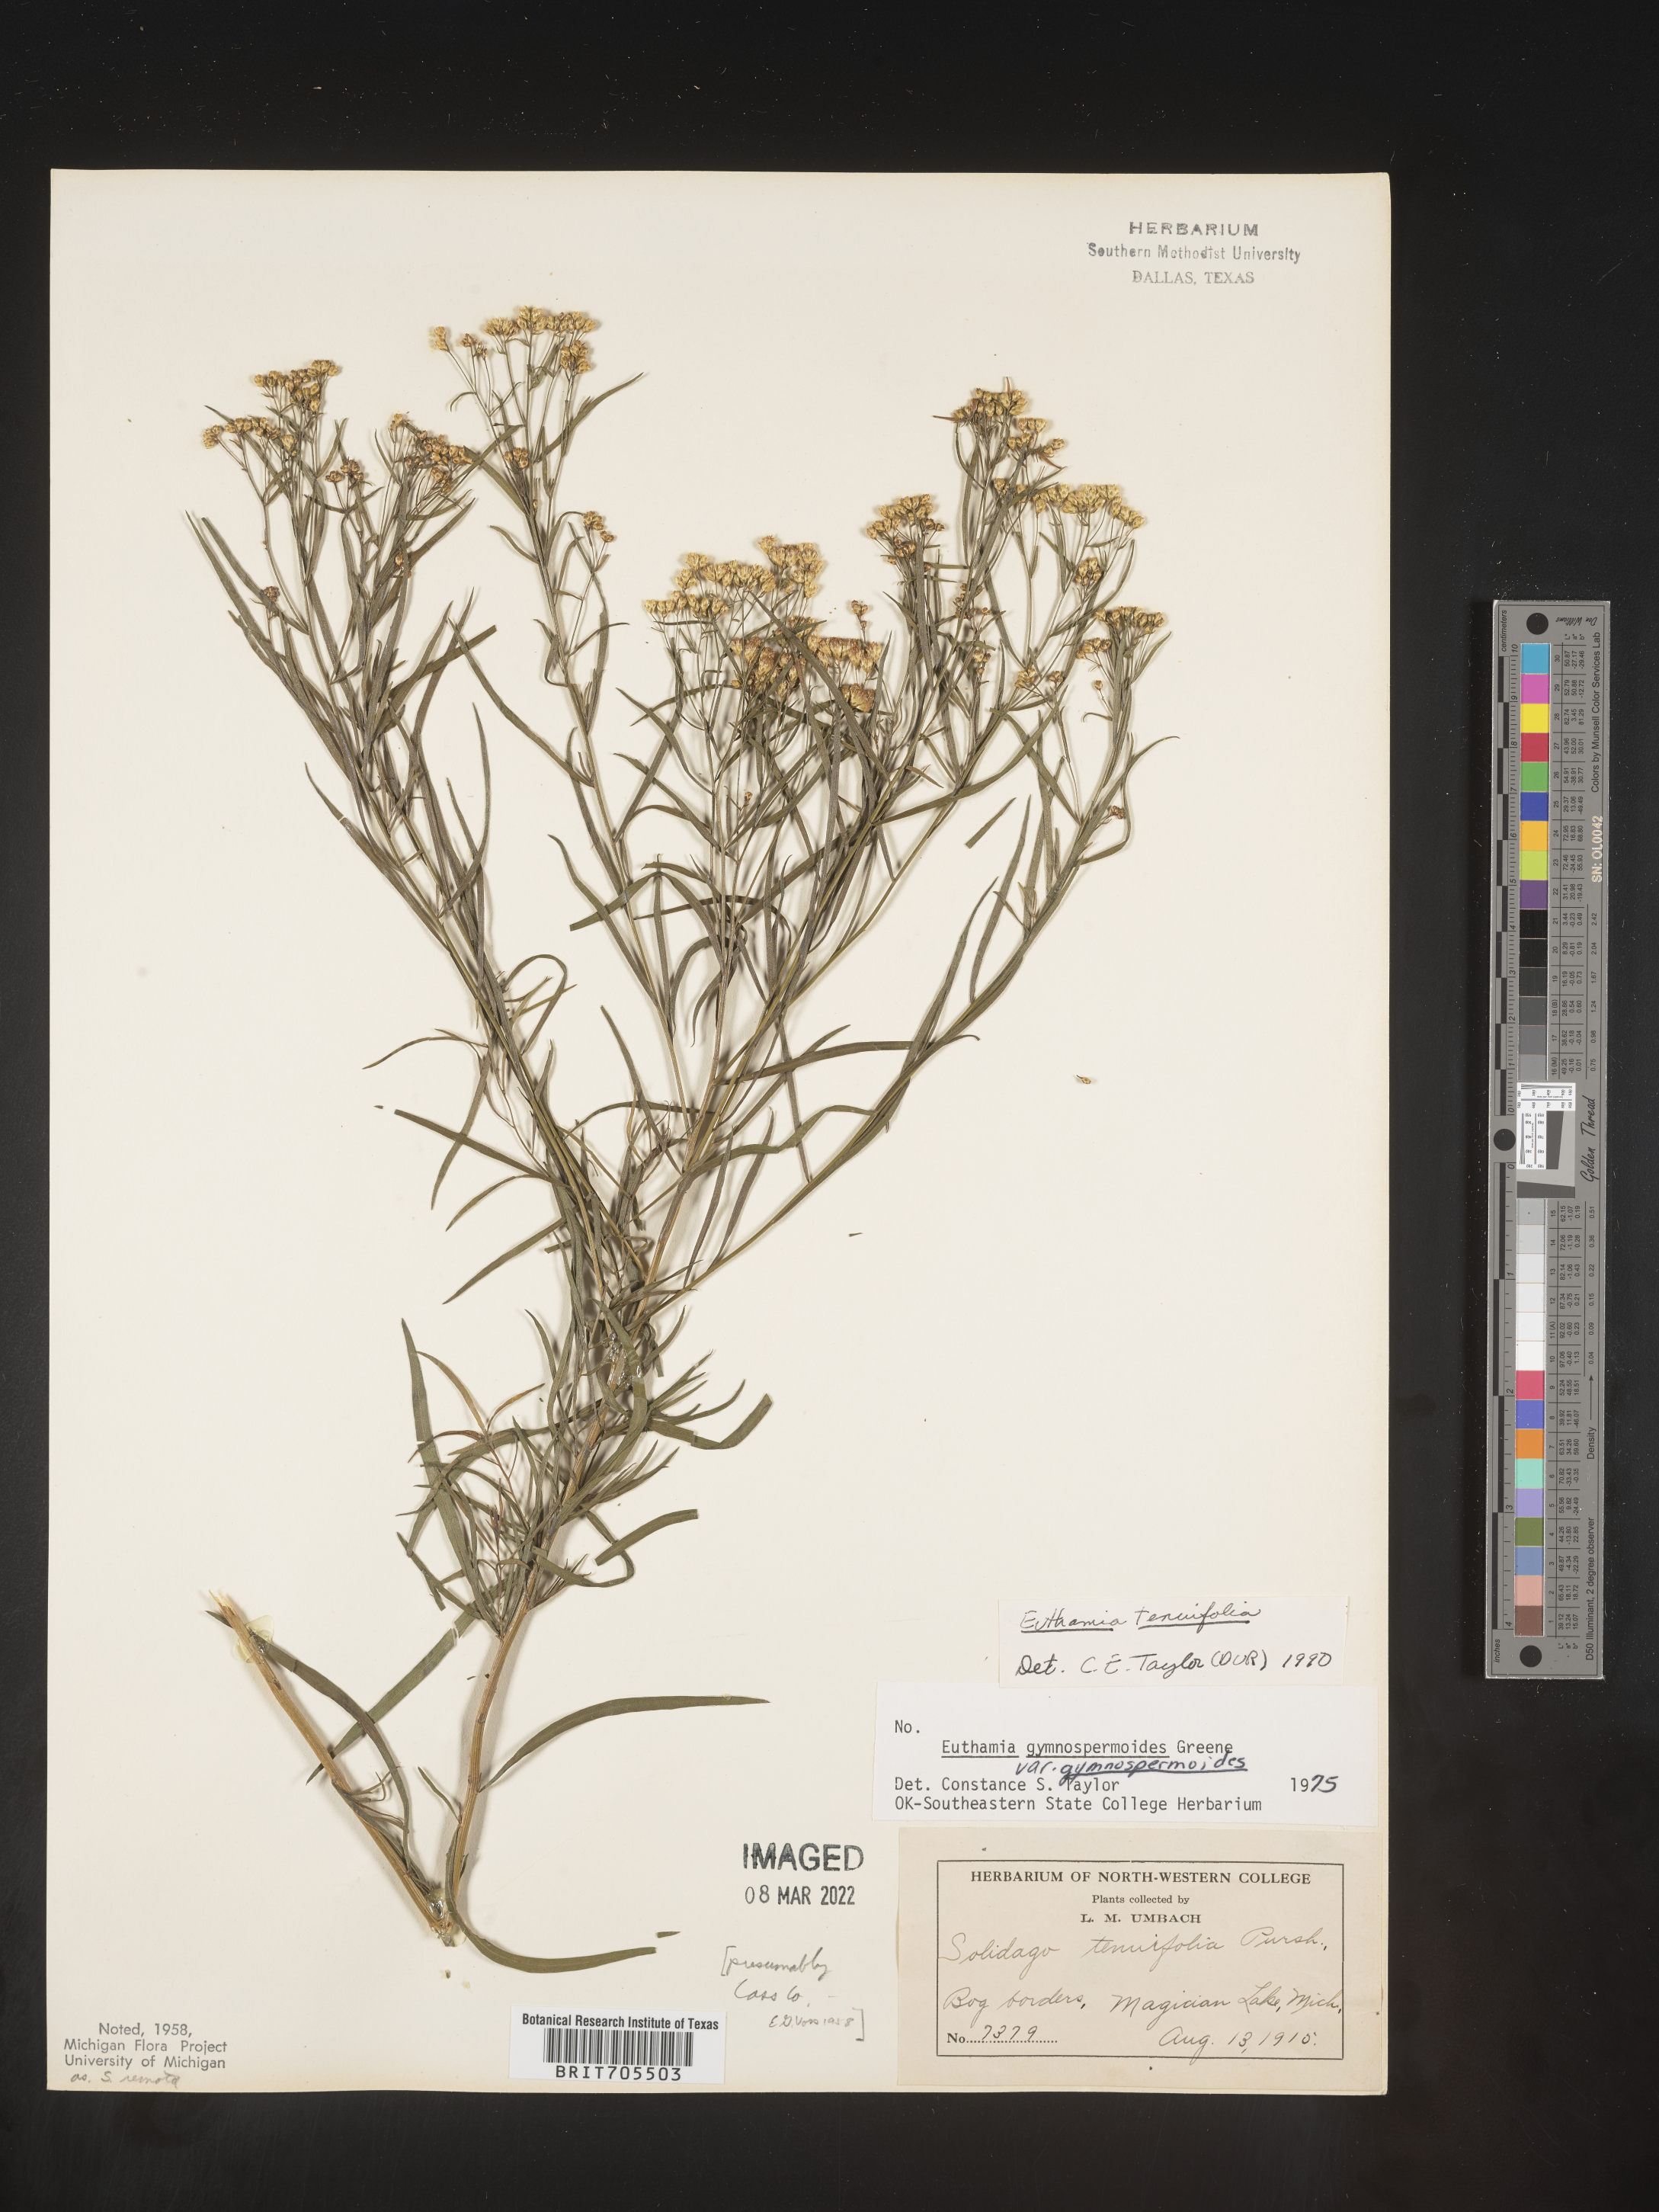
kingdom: Plantae
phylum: Tracheophyta
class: Magnoliopsida
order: Asterales
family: Asteraceae
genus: Euthamia
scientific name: Euthamia caroliniana
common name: Coastal plain goldentop
